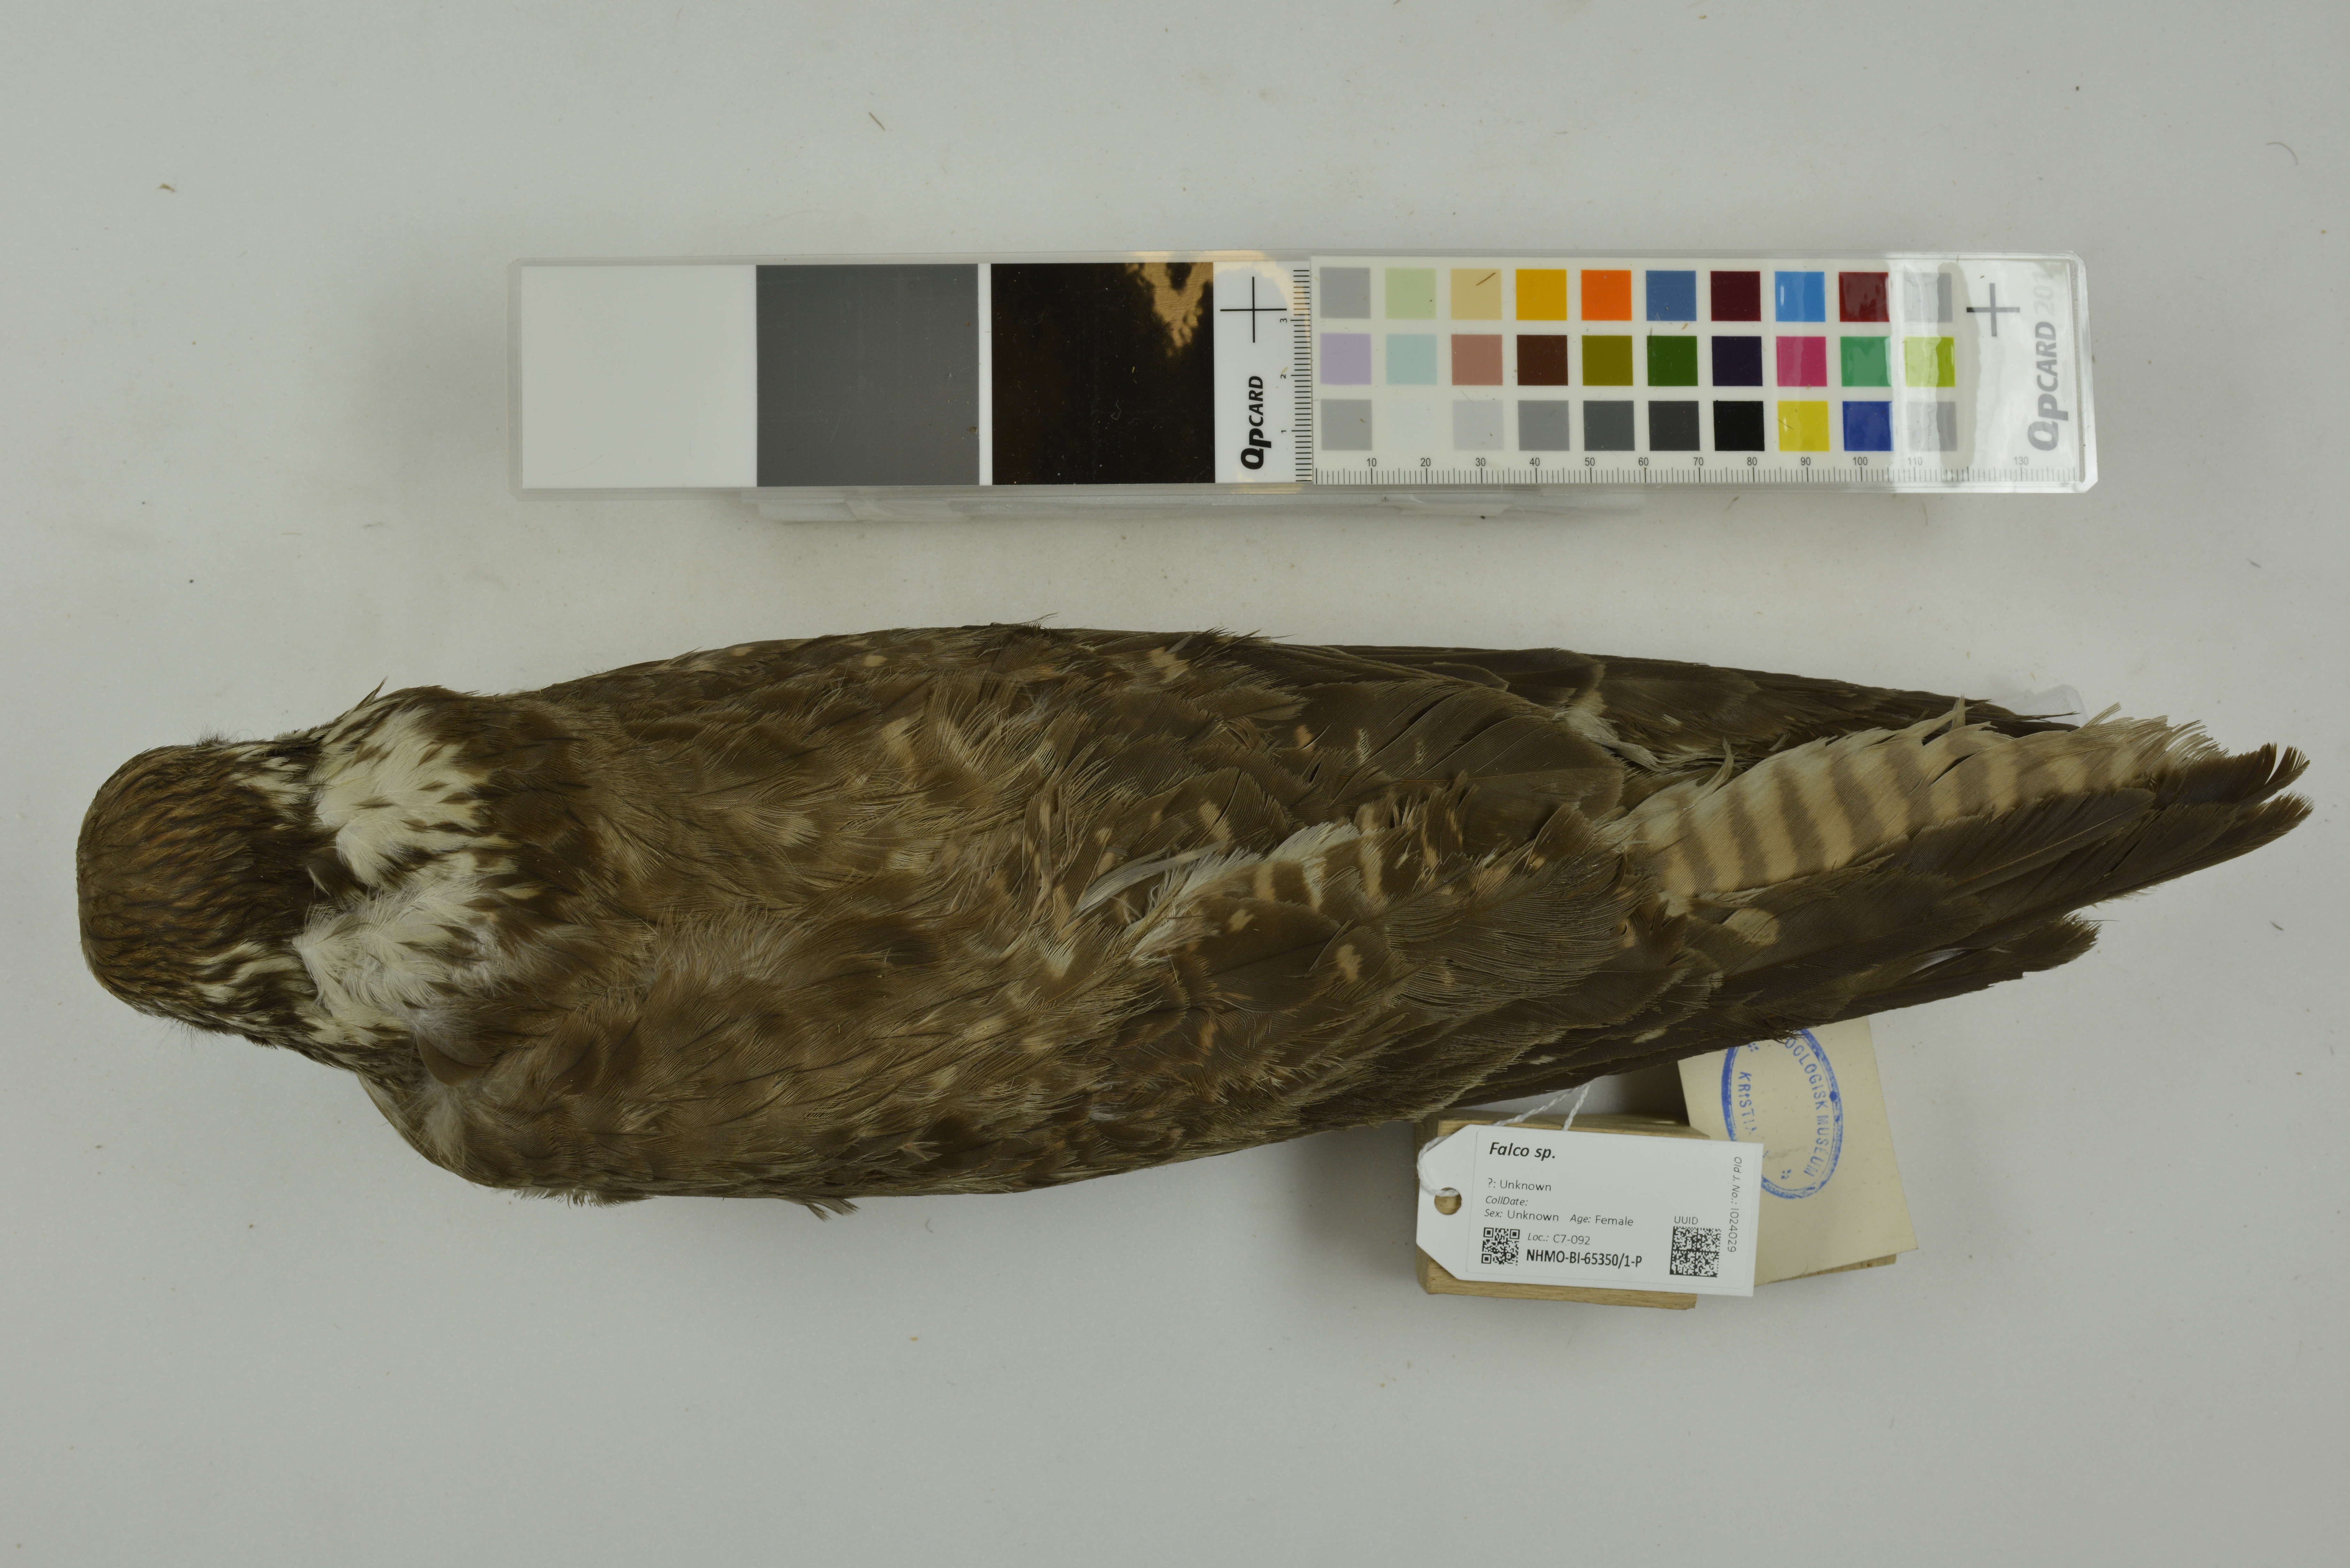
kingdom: Animalia
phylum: Chordata
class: Aves
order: Falconiformes
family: Falconidae
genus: Falco
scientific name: Falco berigora
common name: Brown falcon
